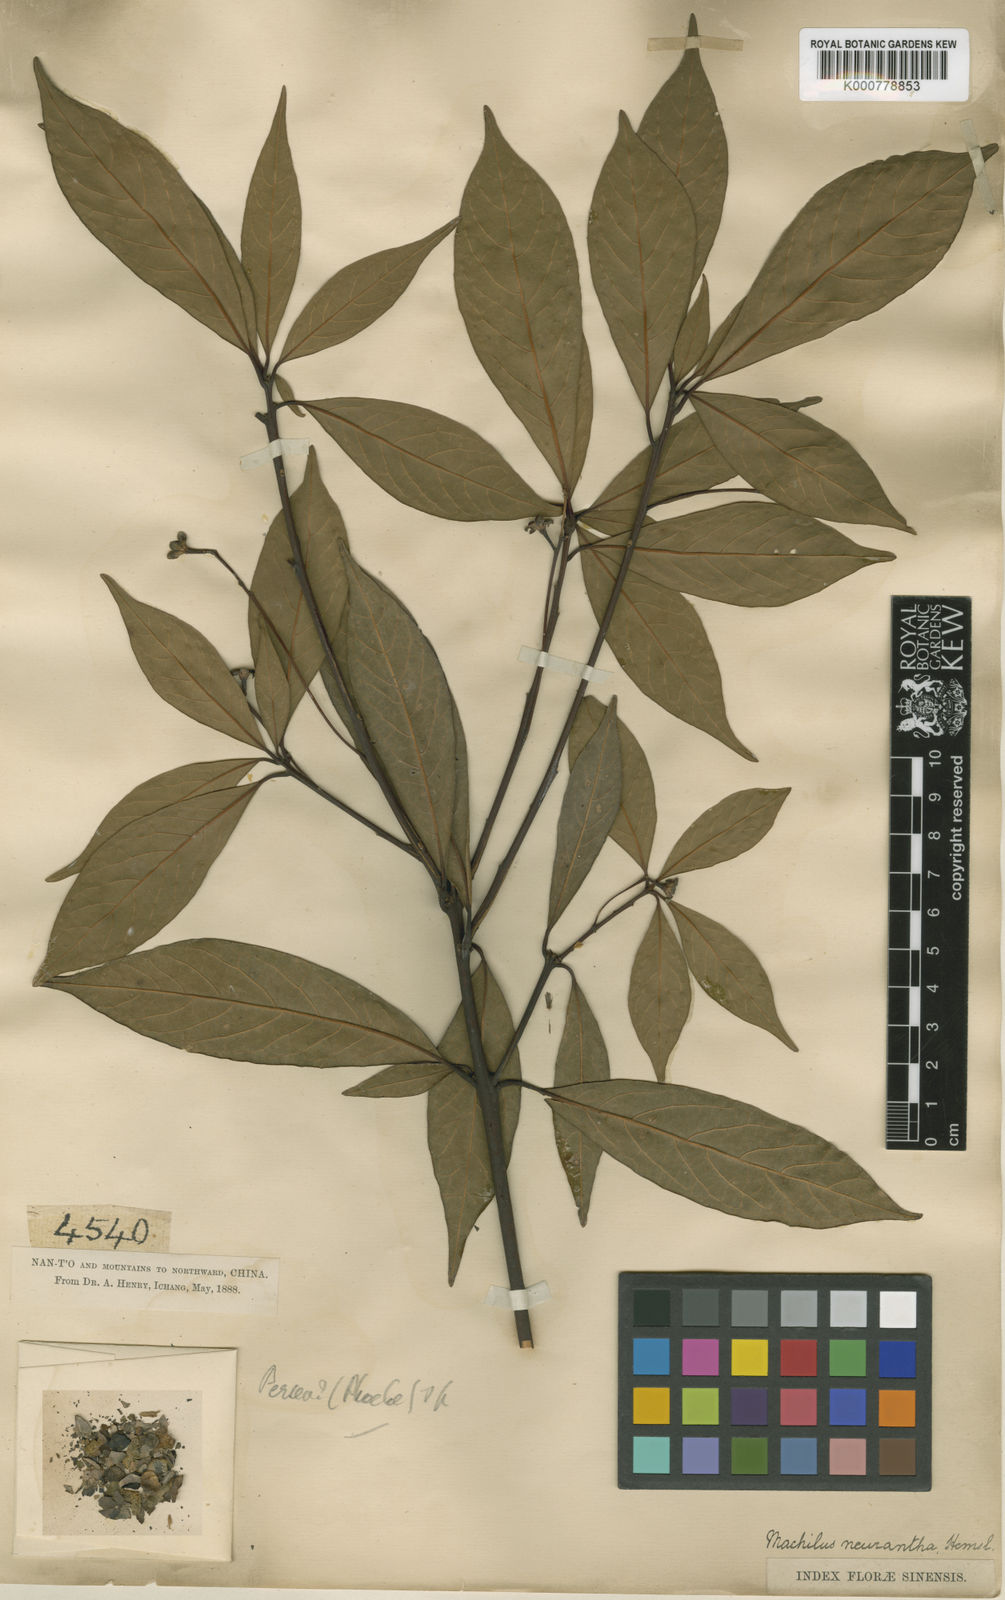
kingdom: Plantae
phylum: Tracheophyta
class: Magnoliopsida
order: Laurales
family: Lauraceae
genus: Phoebe
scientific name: Phoebe neurantha
